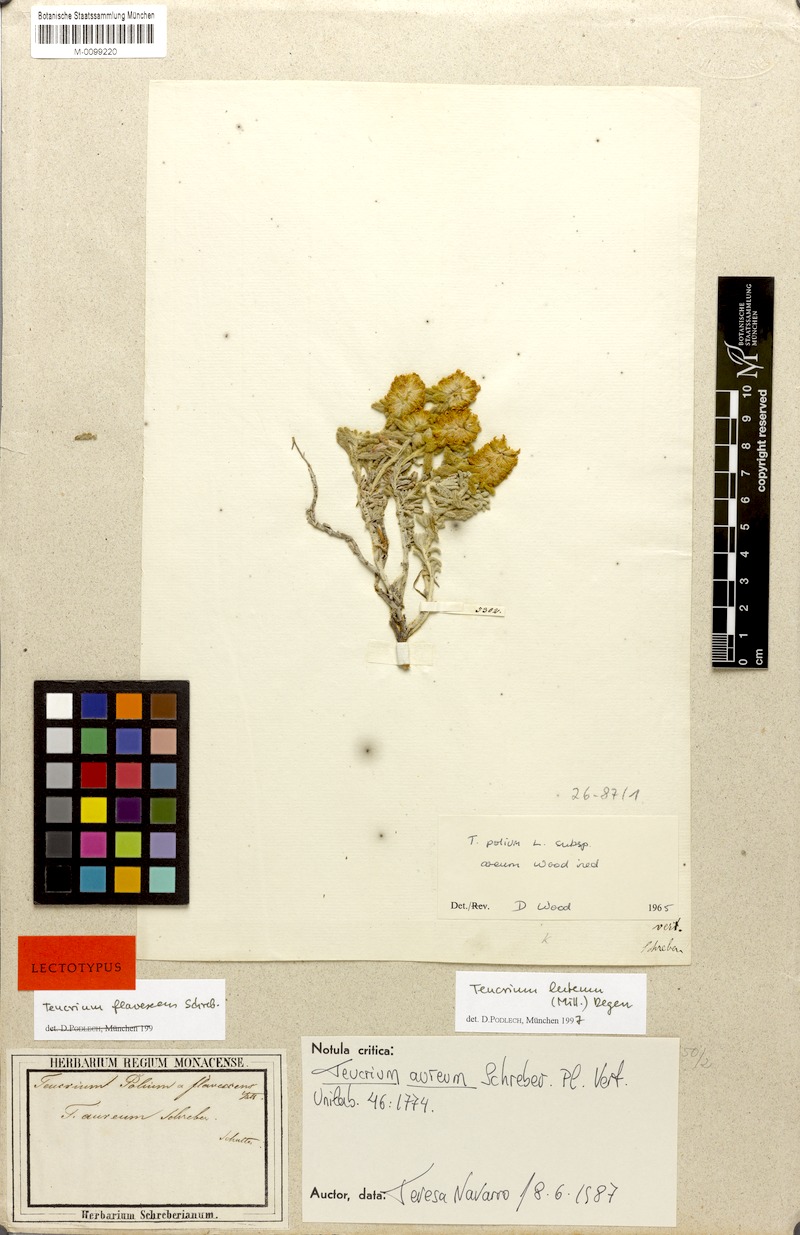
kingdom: Plantae
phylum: Tracheophyta
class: Magnoliopsida
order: Lamiales
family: Lamiaceae
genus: Teucrium
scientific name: Teucrium luteum
